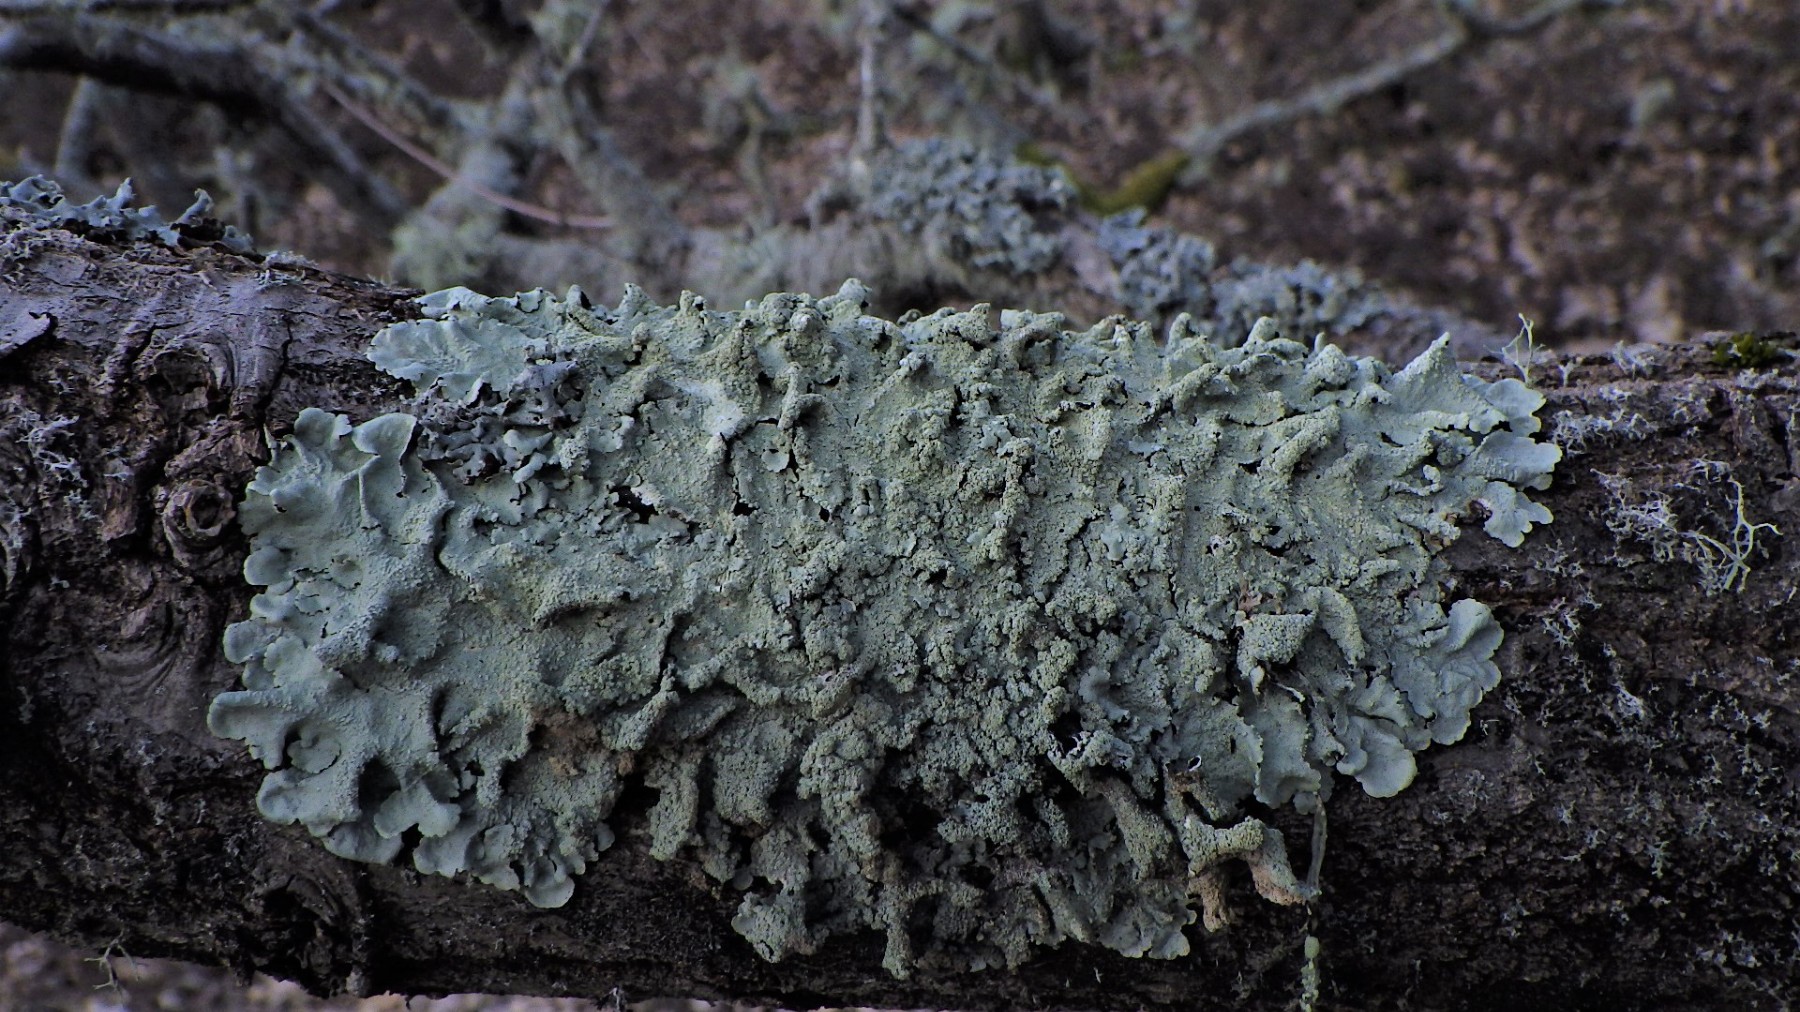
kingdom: Fungi
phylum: Ascomycota
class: Lecanoromycetes
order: Lecanorales
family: Parmeliaceae
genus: Flavoparmelia
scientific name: Flavoparmelia caperata
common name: gulgrøn skållav
